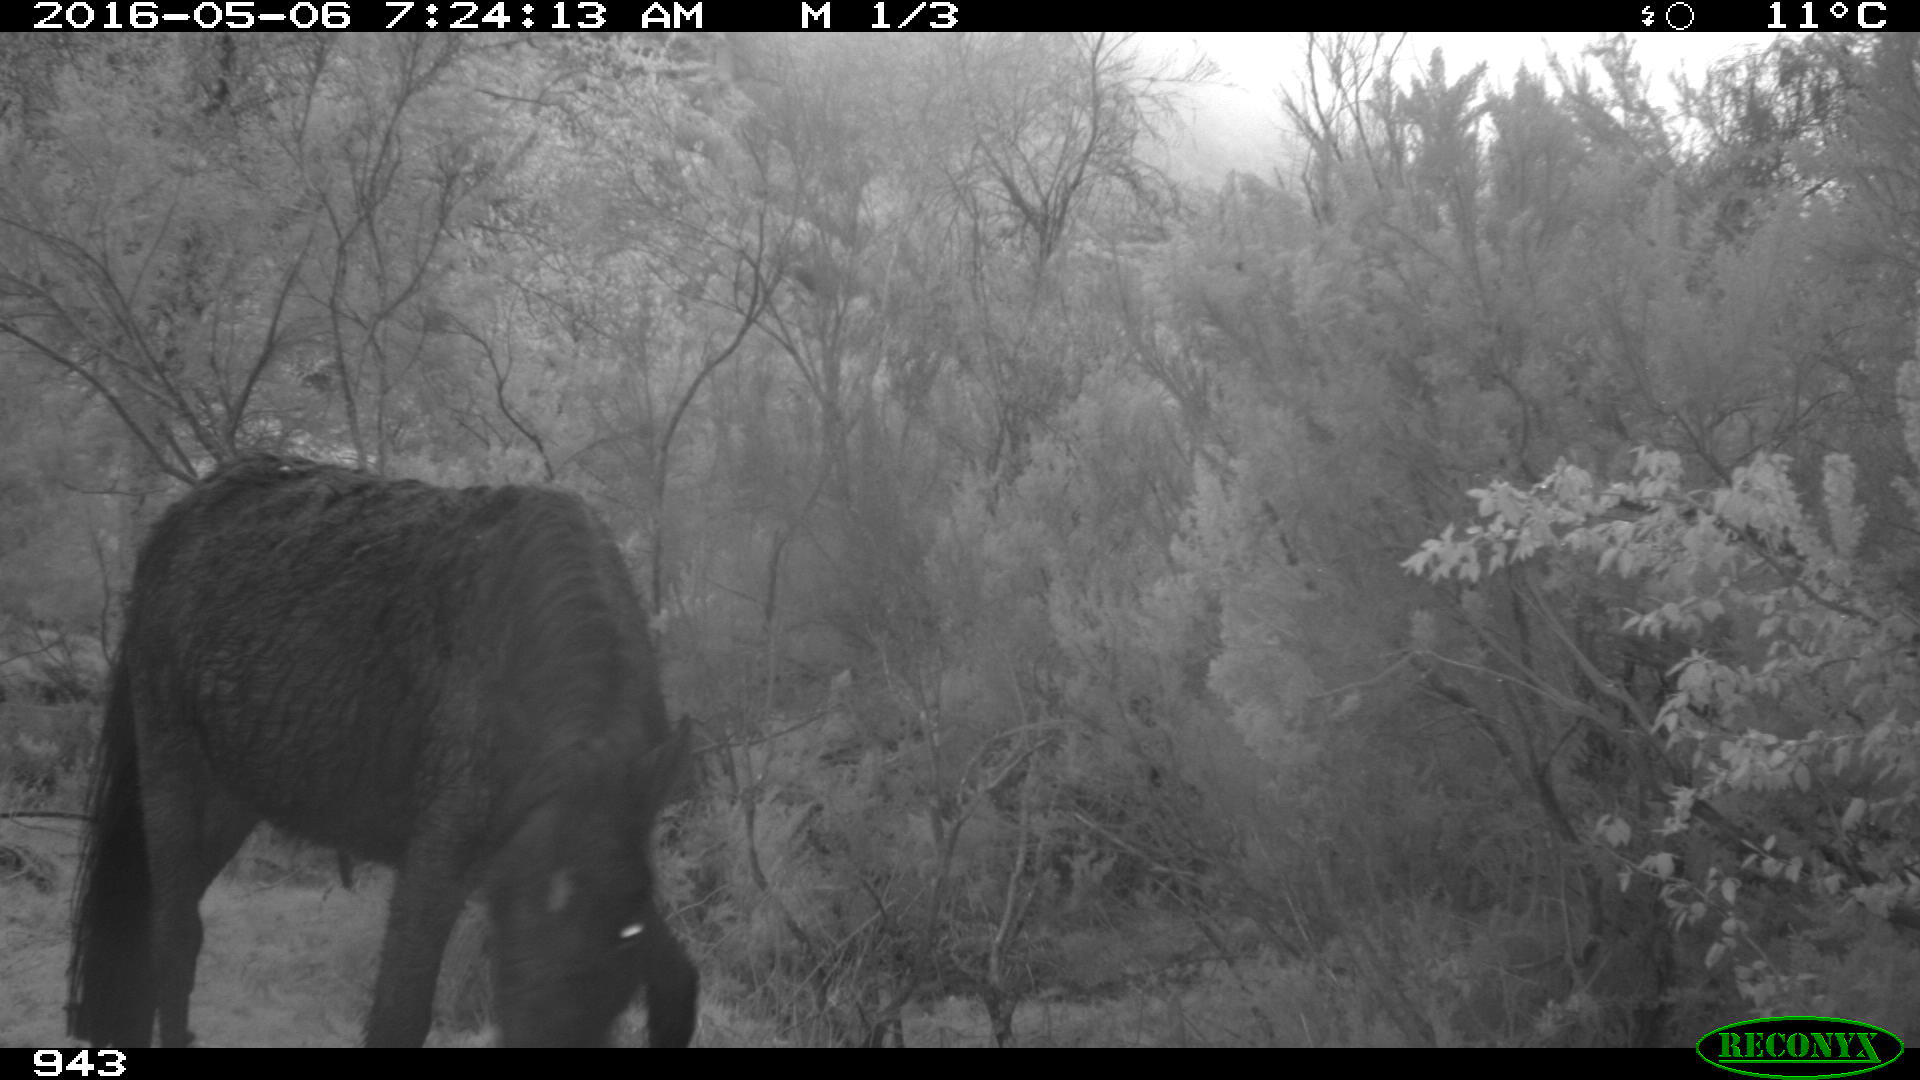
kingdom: Animalia
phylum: Chordata
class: Mammalia
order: Perissodactyla
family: Equidae
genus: Equus
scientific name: Equus caballus
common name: Horse
